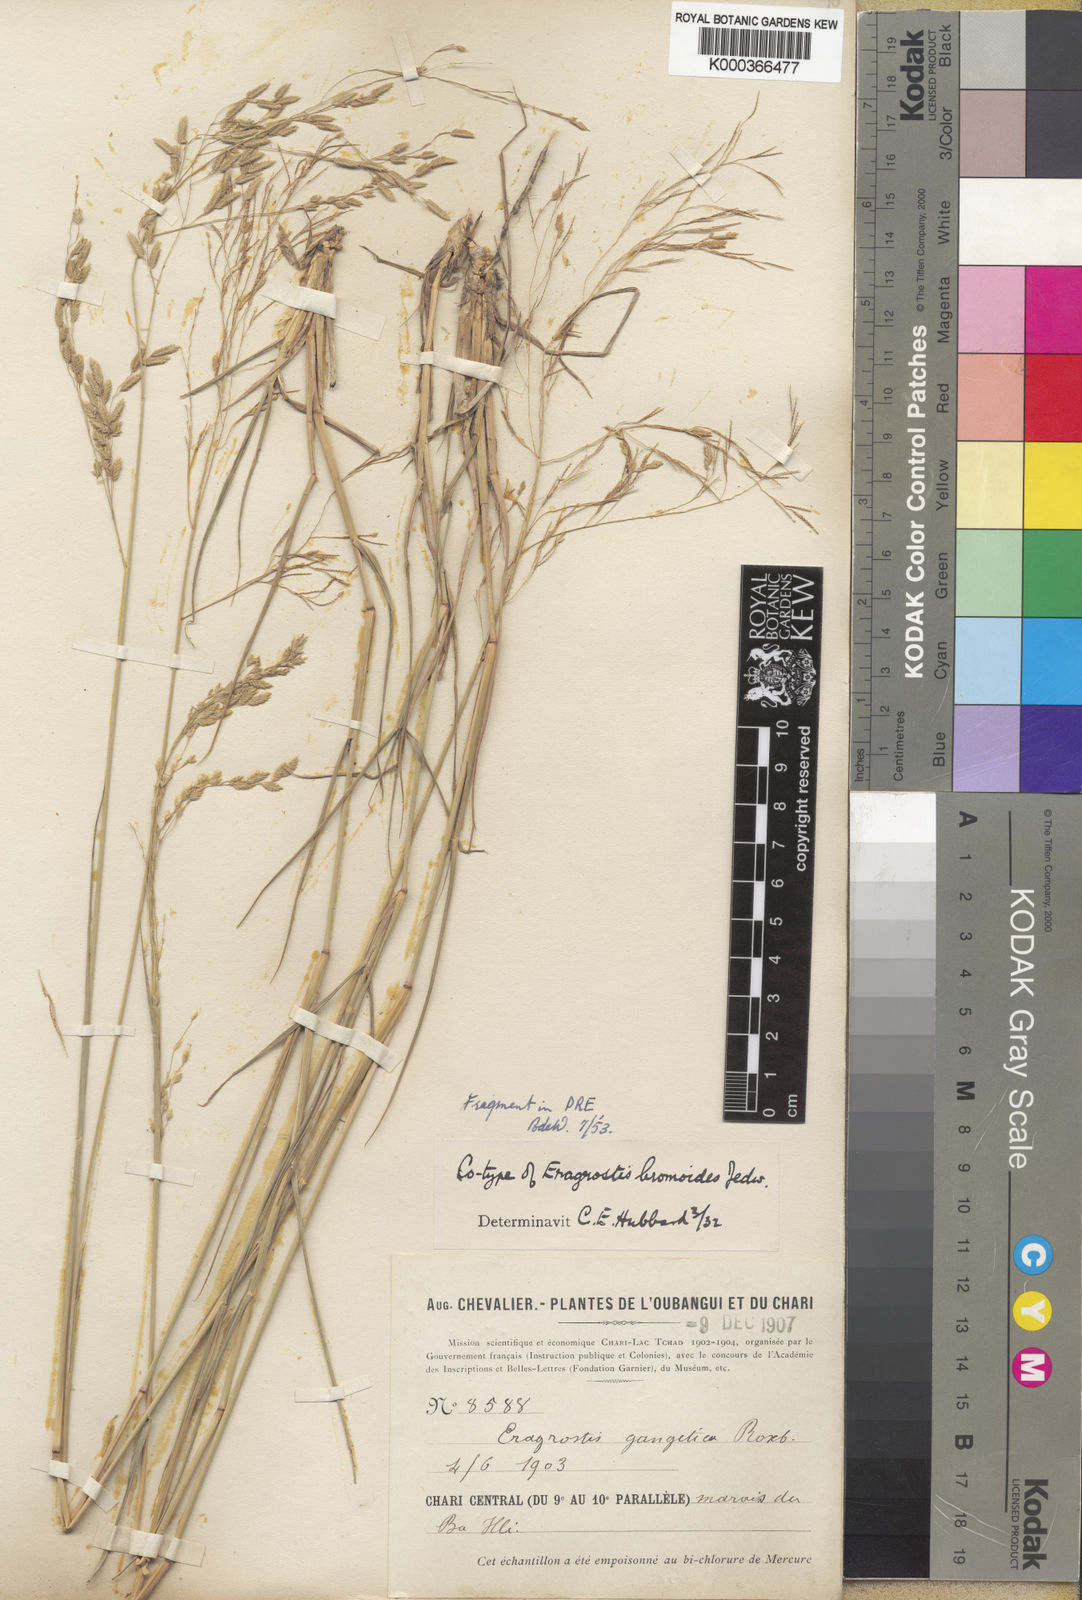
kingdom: Plantae
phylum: Tracheophyta
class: Liliopsida
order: Poales
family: Poaceae
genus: Eragrostis
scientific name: Eragrostis papposa
